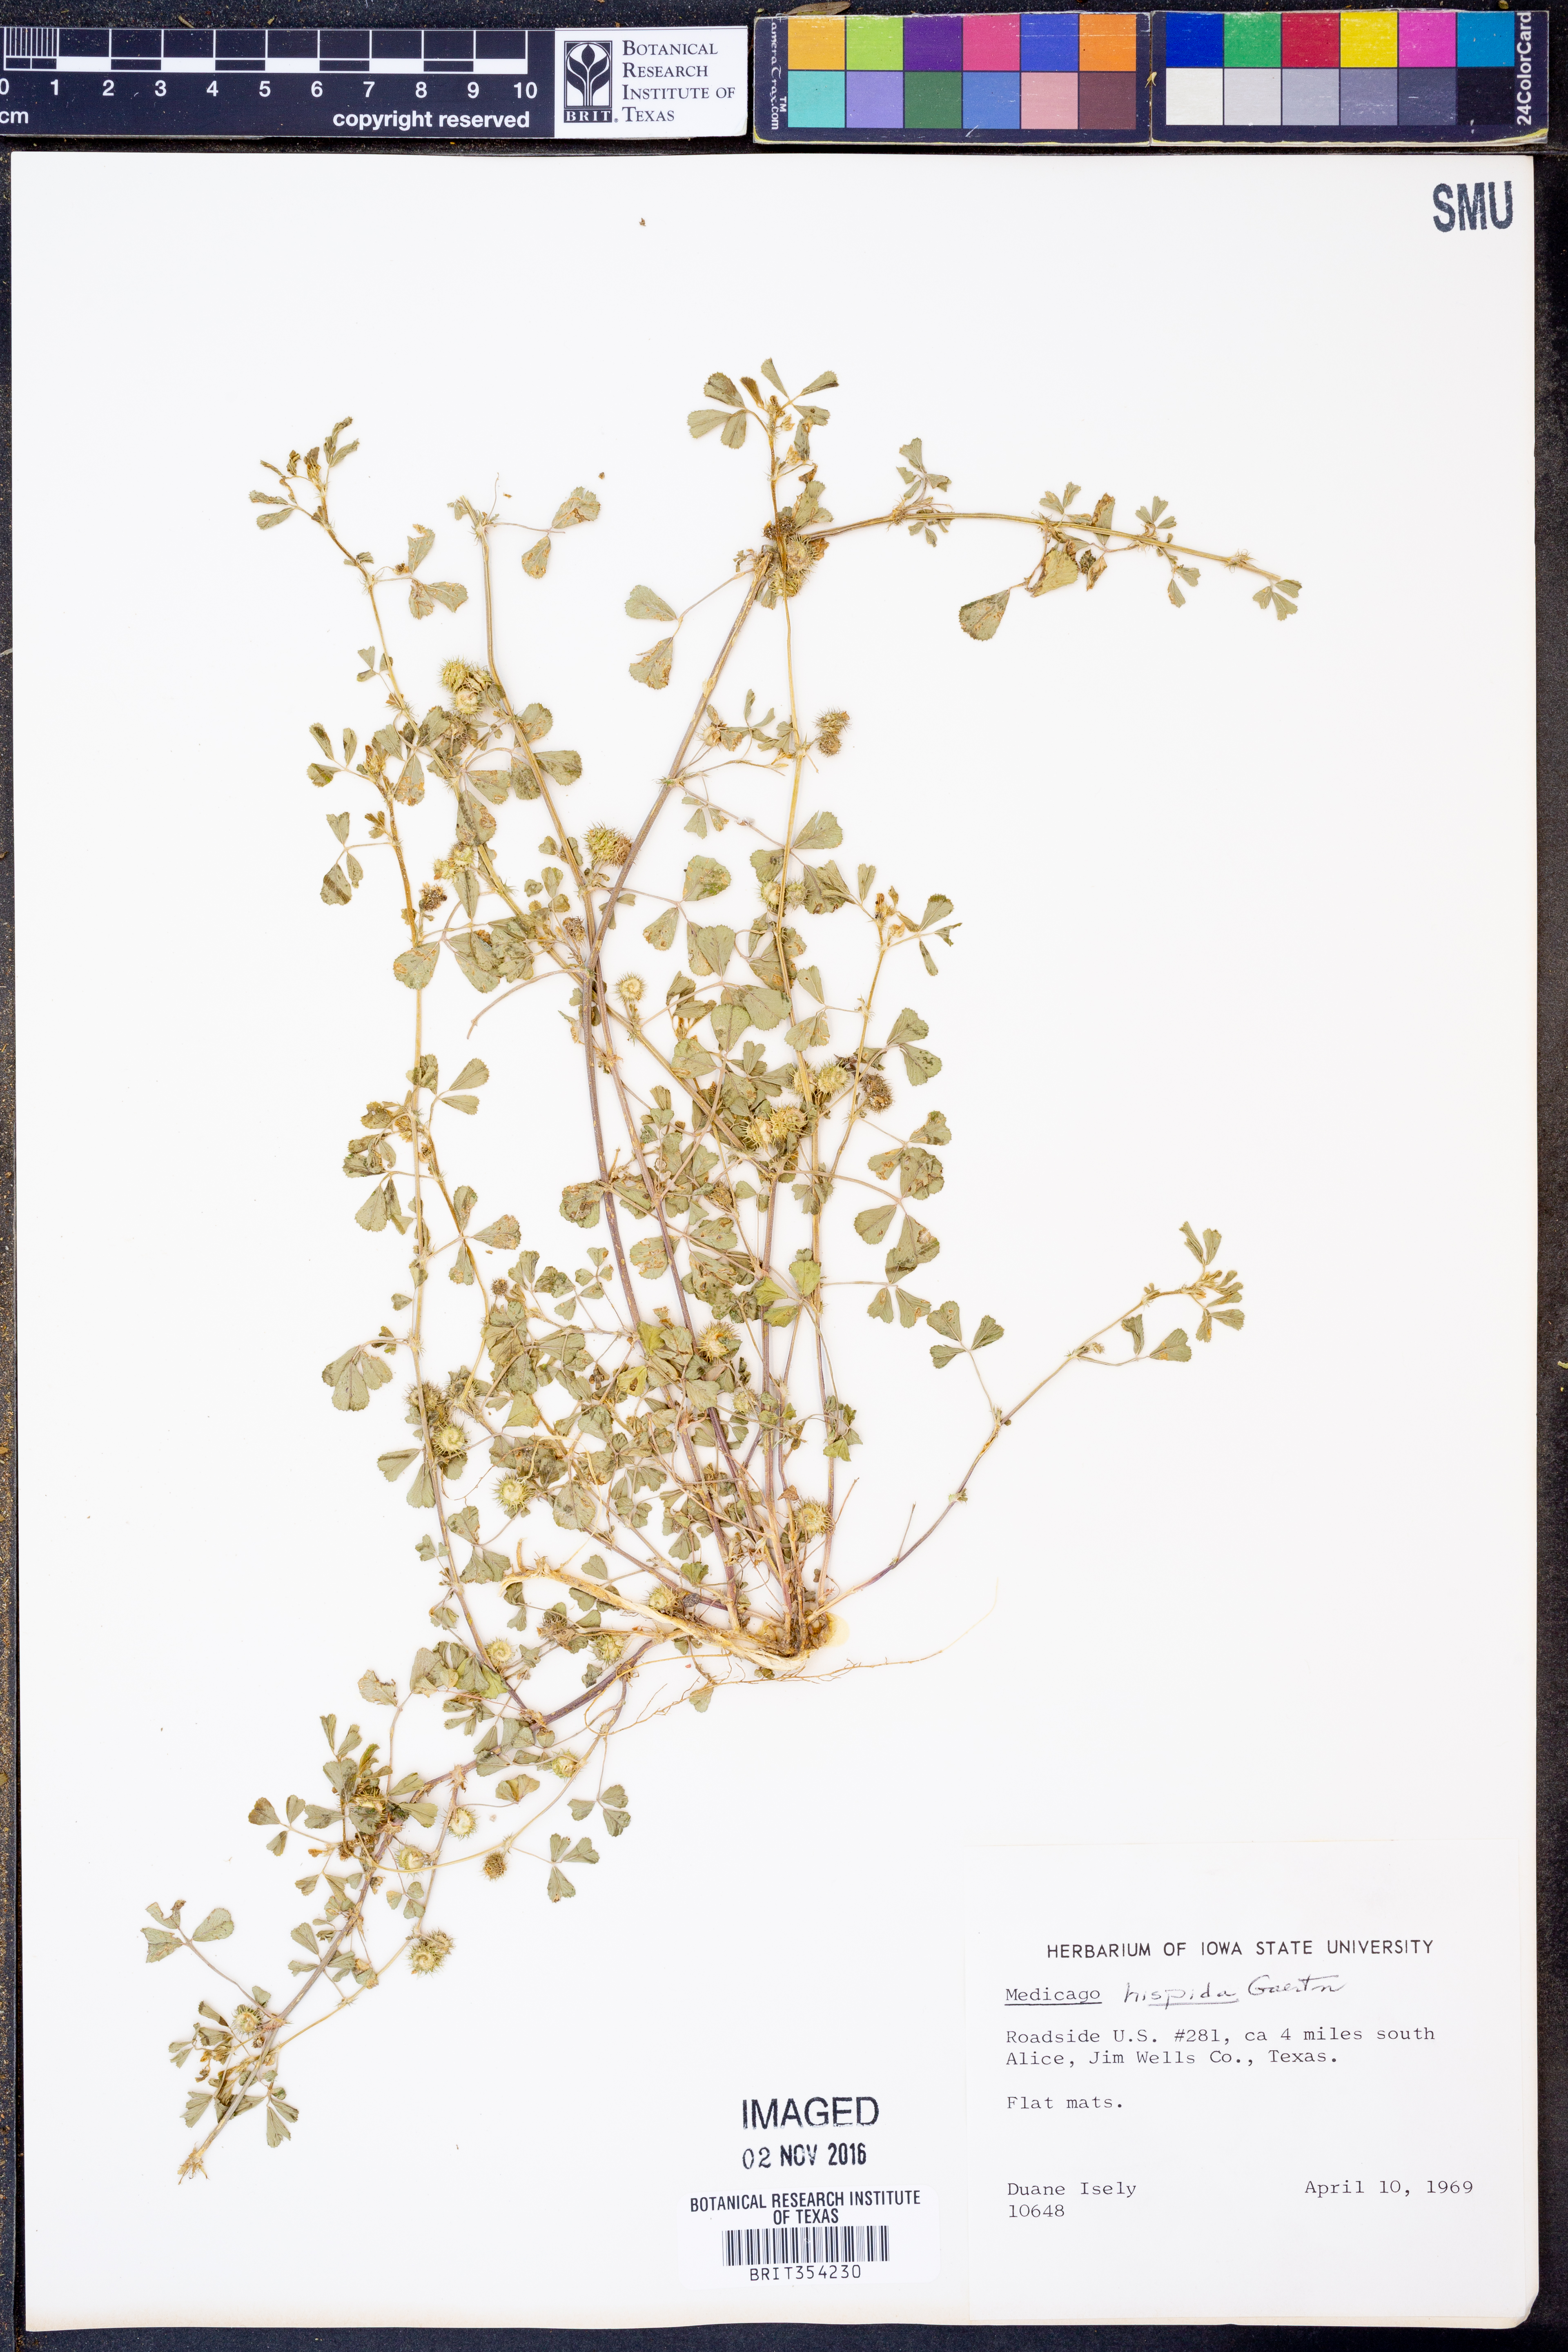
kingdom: Plantae
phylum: Tracheophyta
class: Magnoliopsida
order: Fabales
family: Fabaceae
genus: Medicago
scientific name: Medicago polymorpha
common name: Burclover
